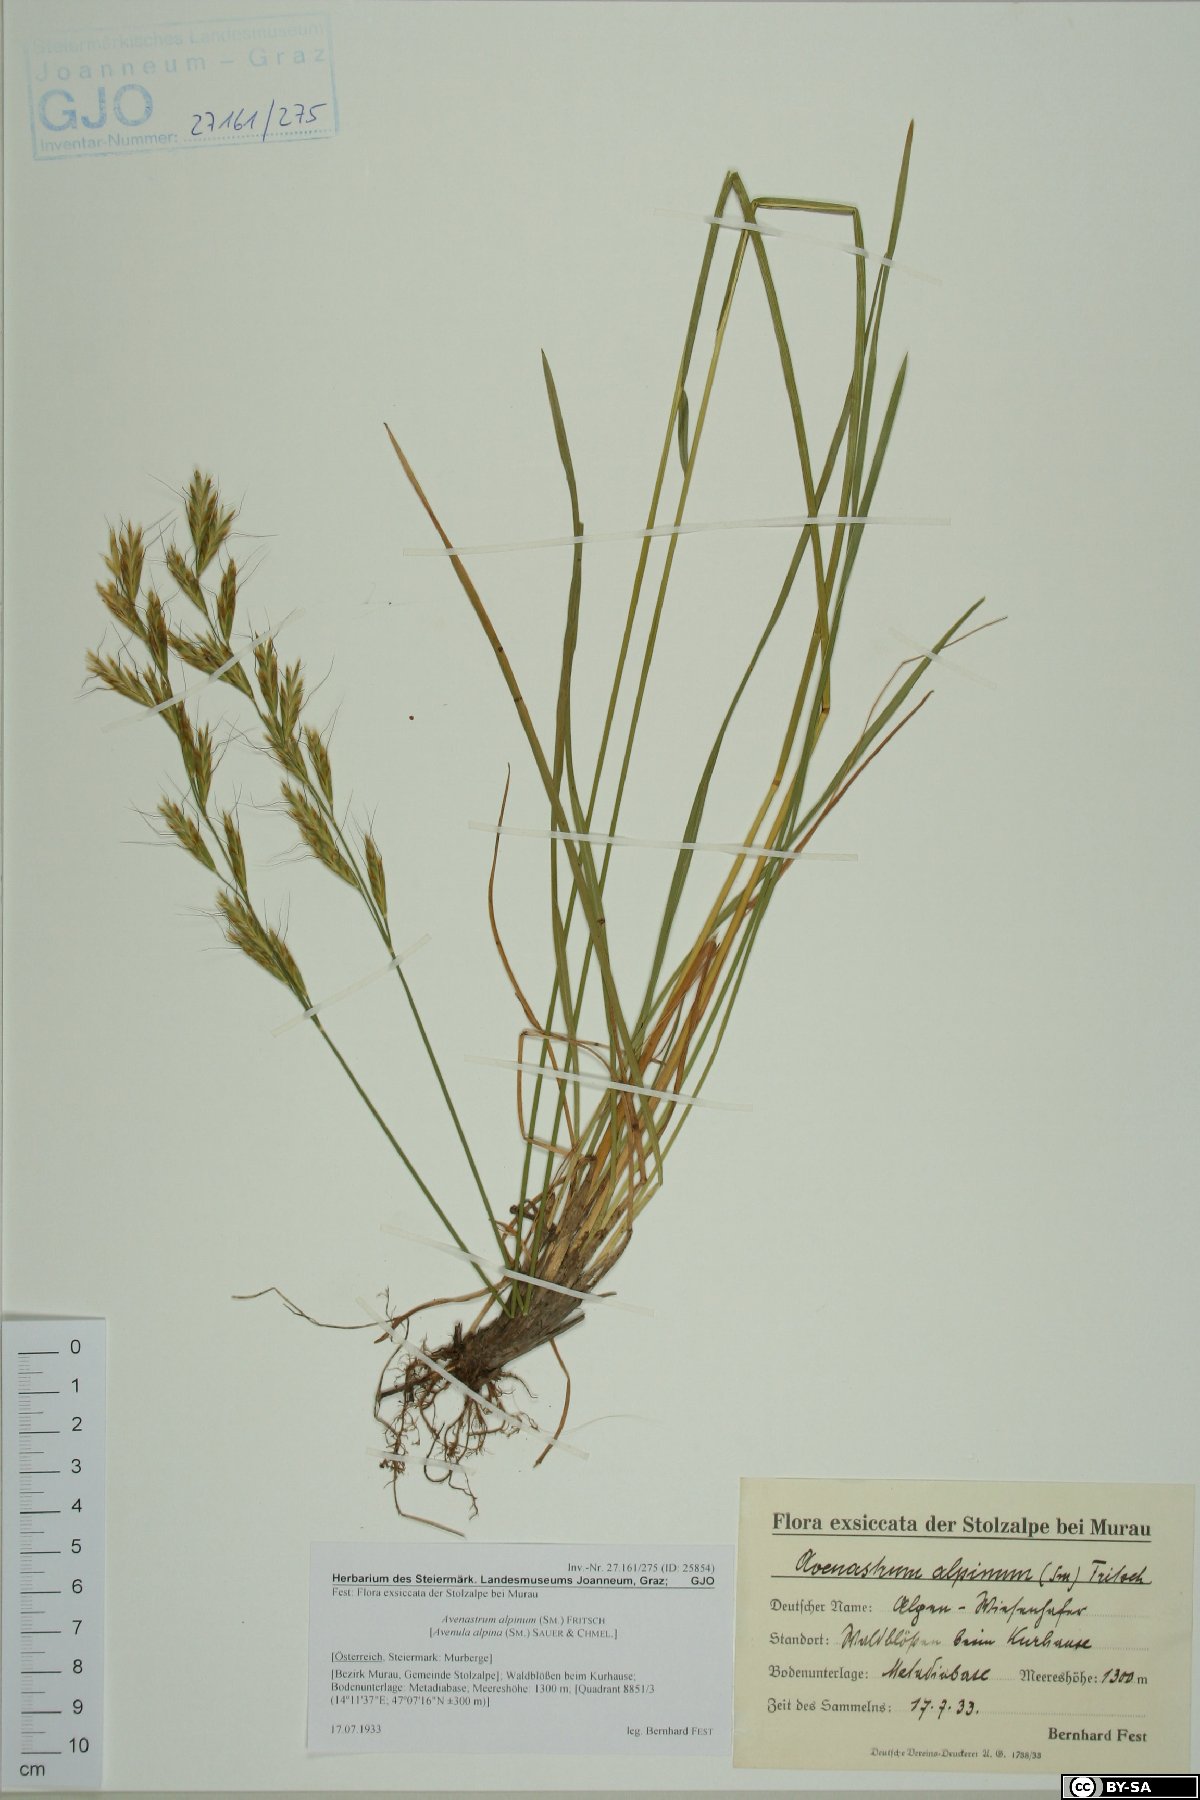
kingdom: Plantae
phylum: Tracheophyta
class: Liliopsida
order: Poales
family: Poaceae
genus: Helictochloa
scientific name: Helictochloa praeusta
